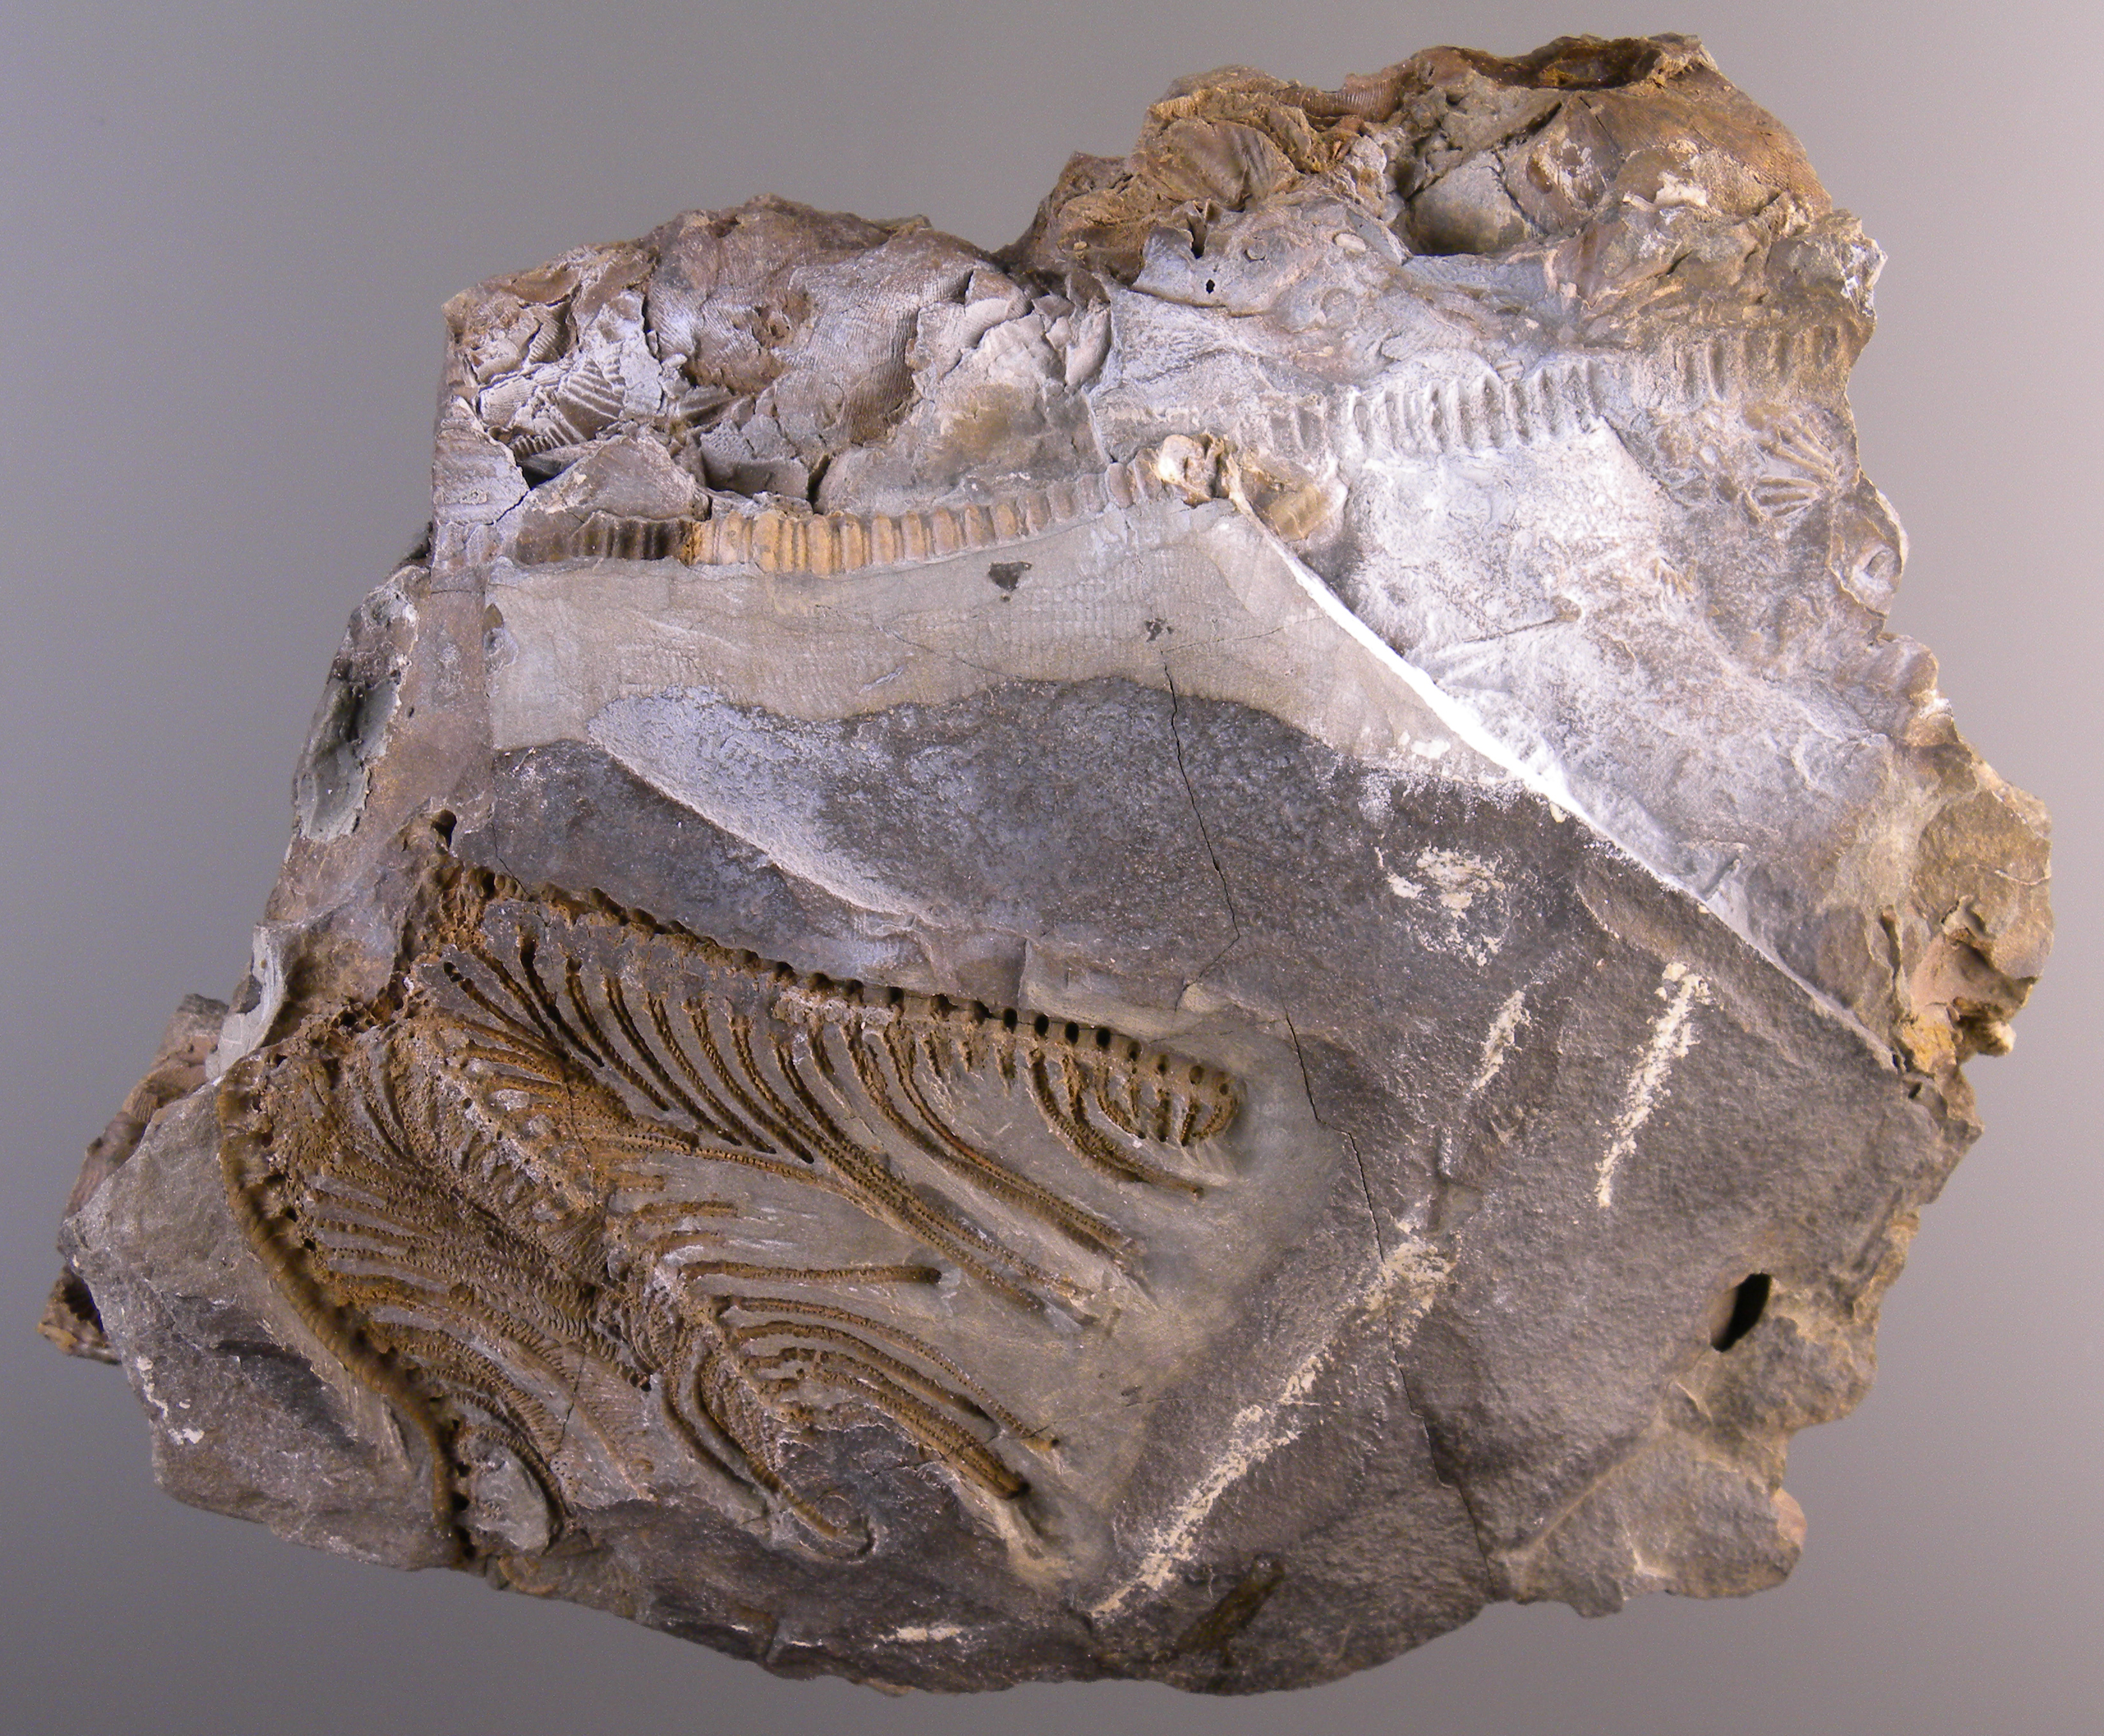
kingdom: Animalia
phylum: Echinodermata
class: Crinoidea
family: Melocrinitidae
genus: Ctenocrinus
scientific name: Ctenocrinus
